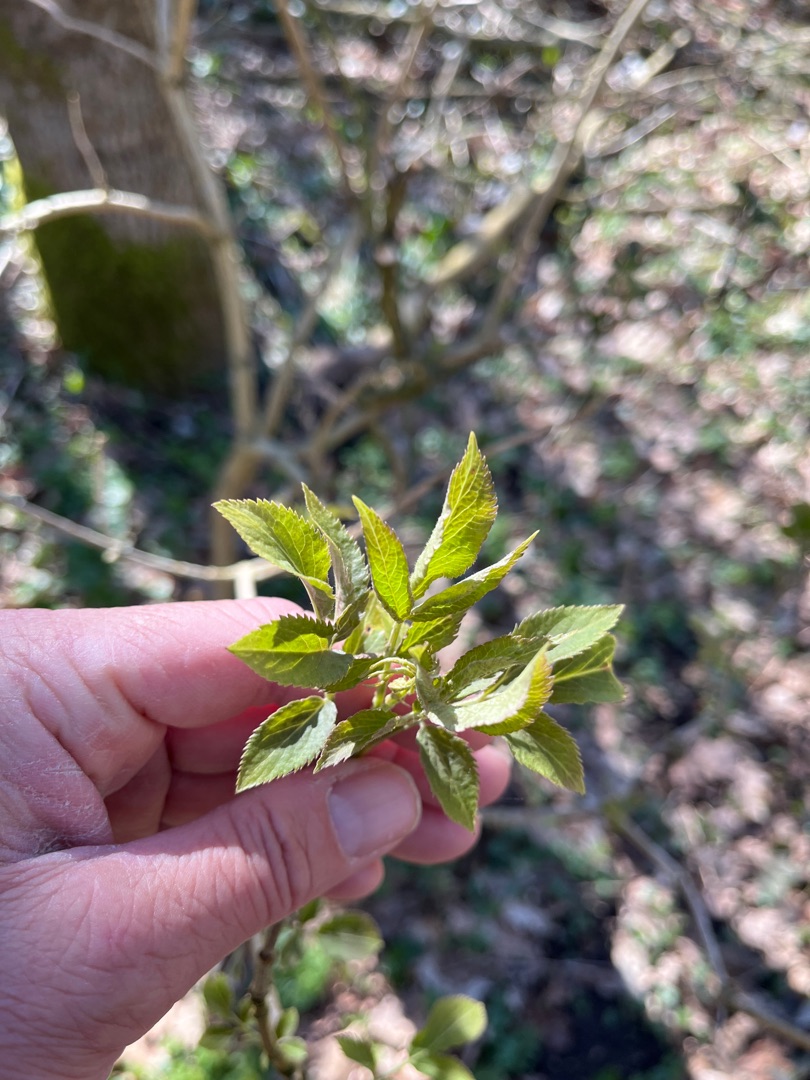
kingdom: Plantae
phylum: Tracheophyta
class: Magnoliopsida
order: Dipsacales
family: Viburnaceae
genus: Sambucus
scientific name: Sambucus nigra
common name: Almindelig hyld
